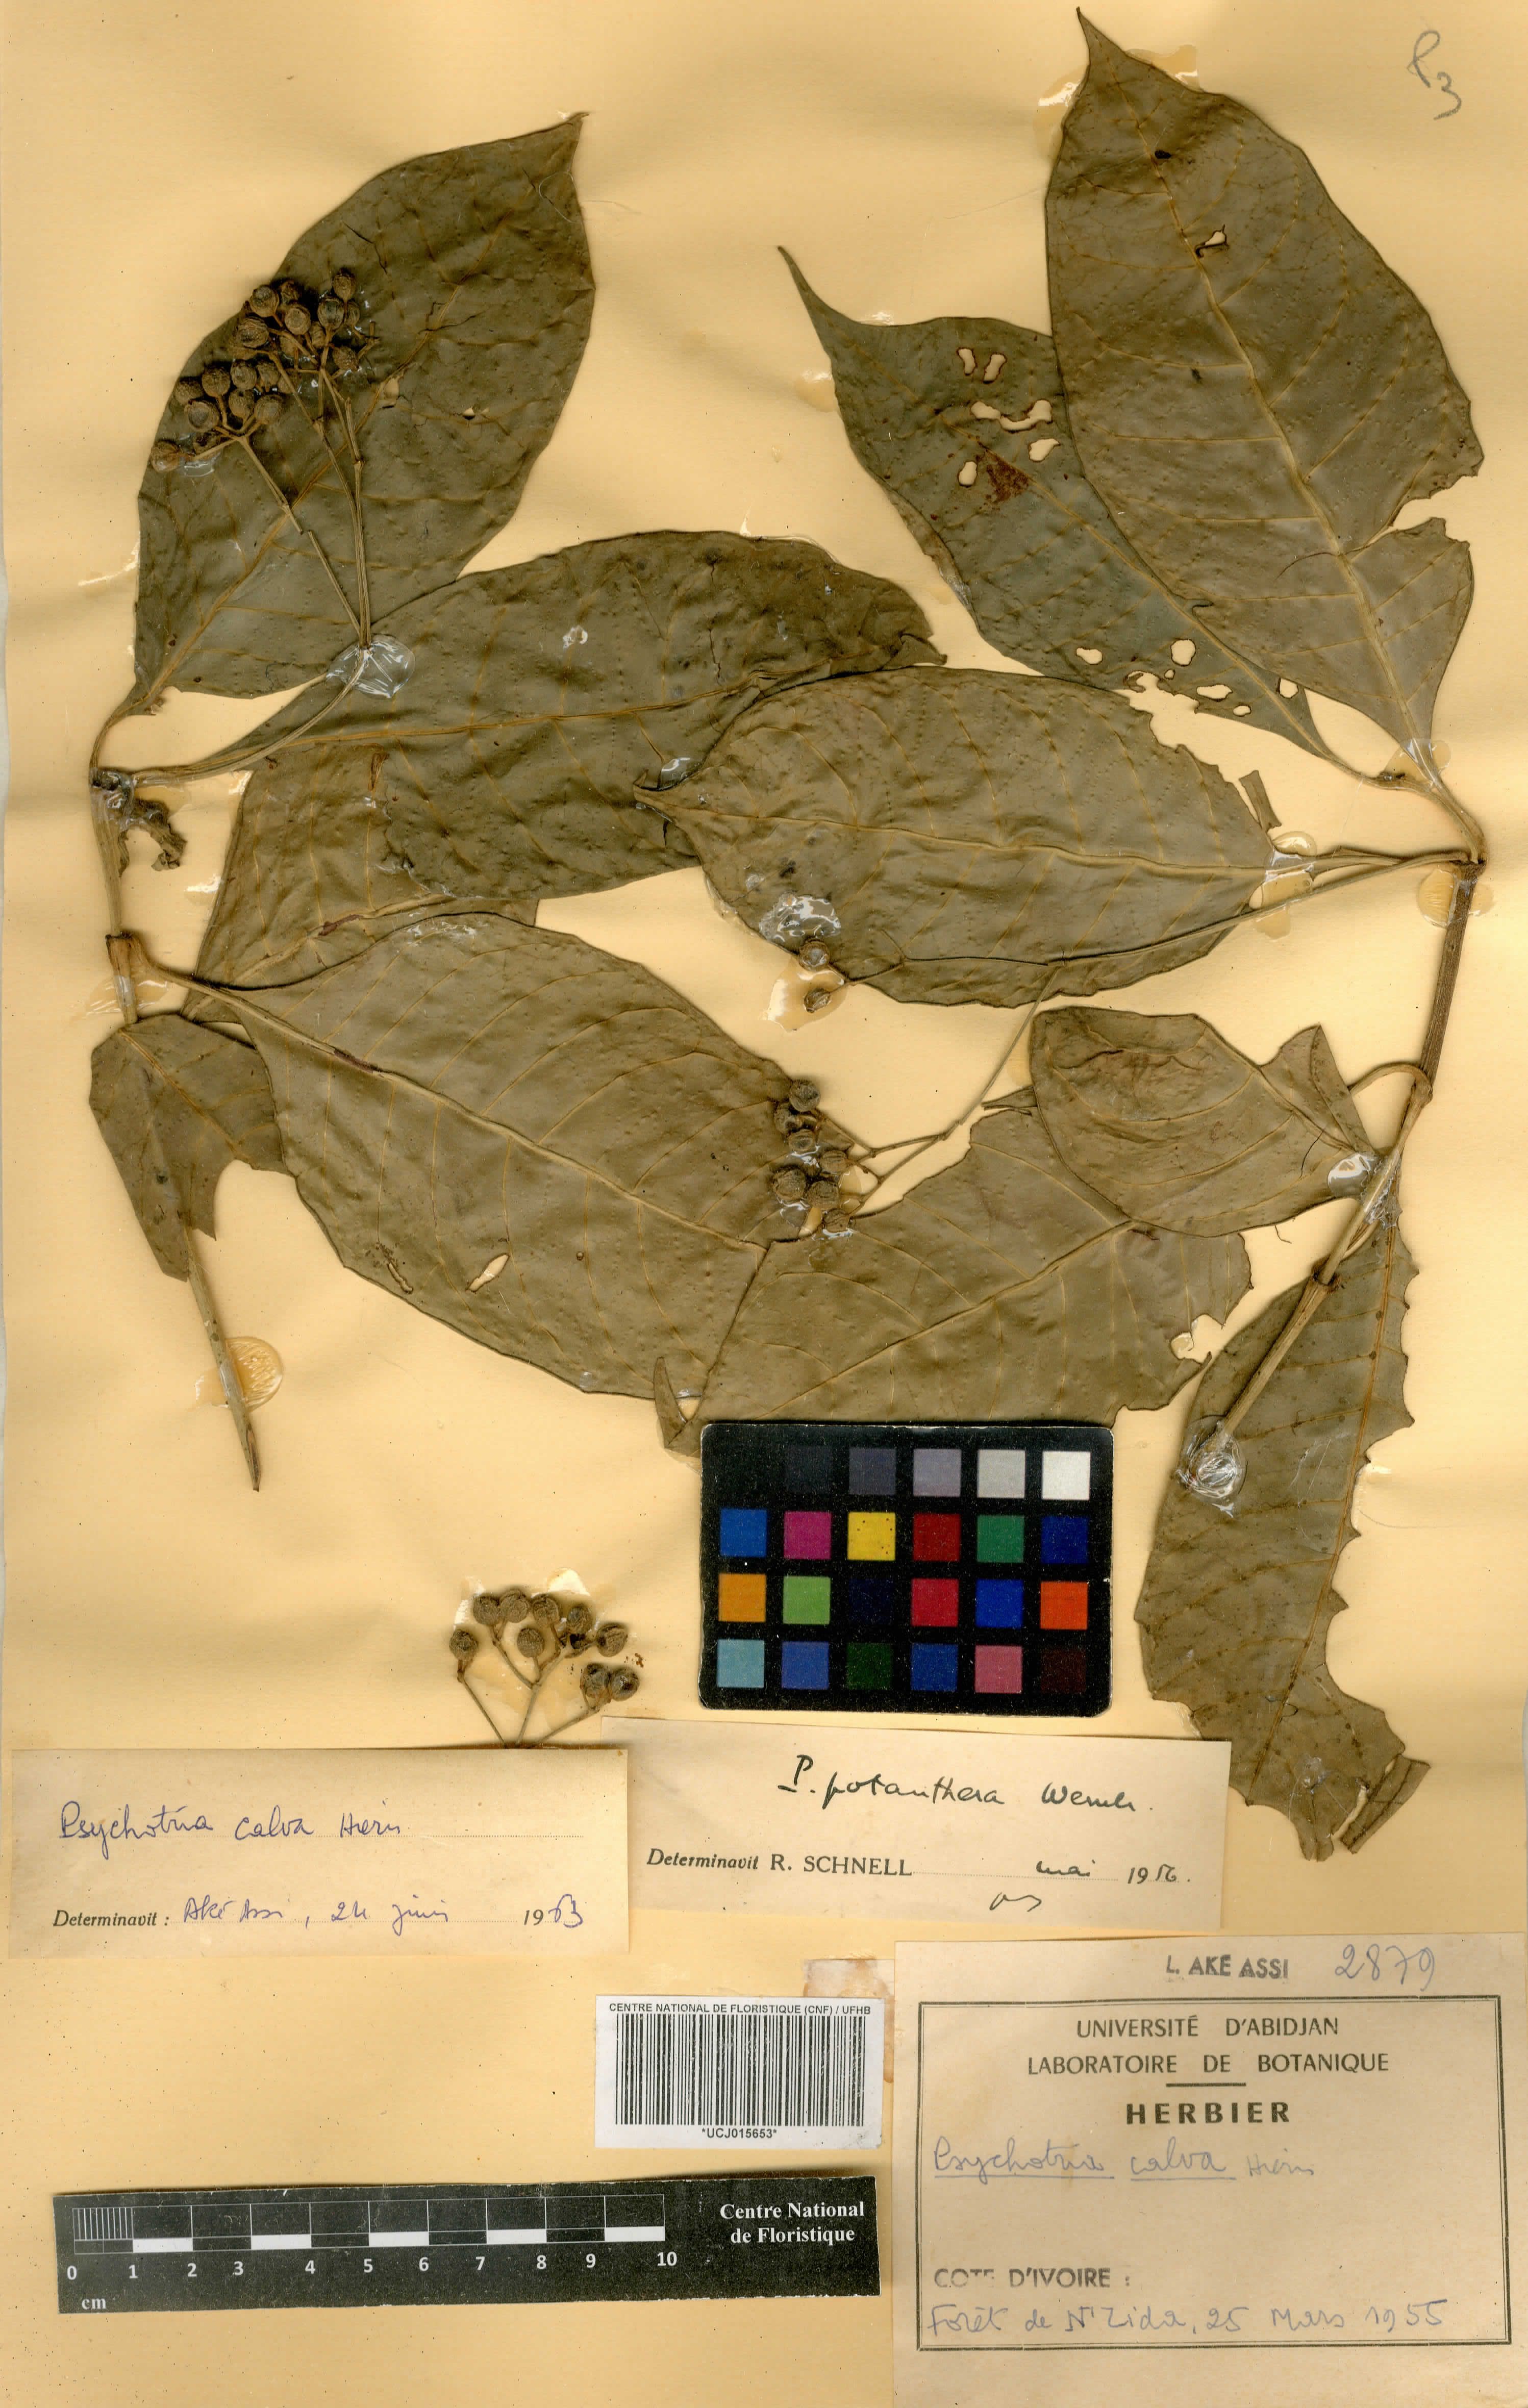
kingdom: Plantae
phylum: Tracheophyta
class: Magnoliopsida
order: Gentianales
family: Rubiaceae
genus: Psychotria
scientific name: Psychotria calva
